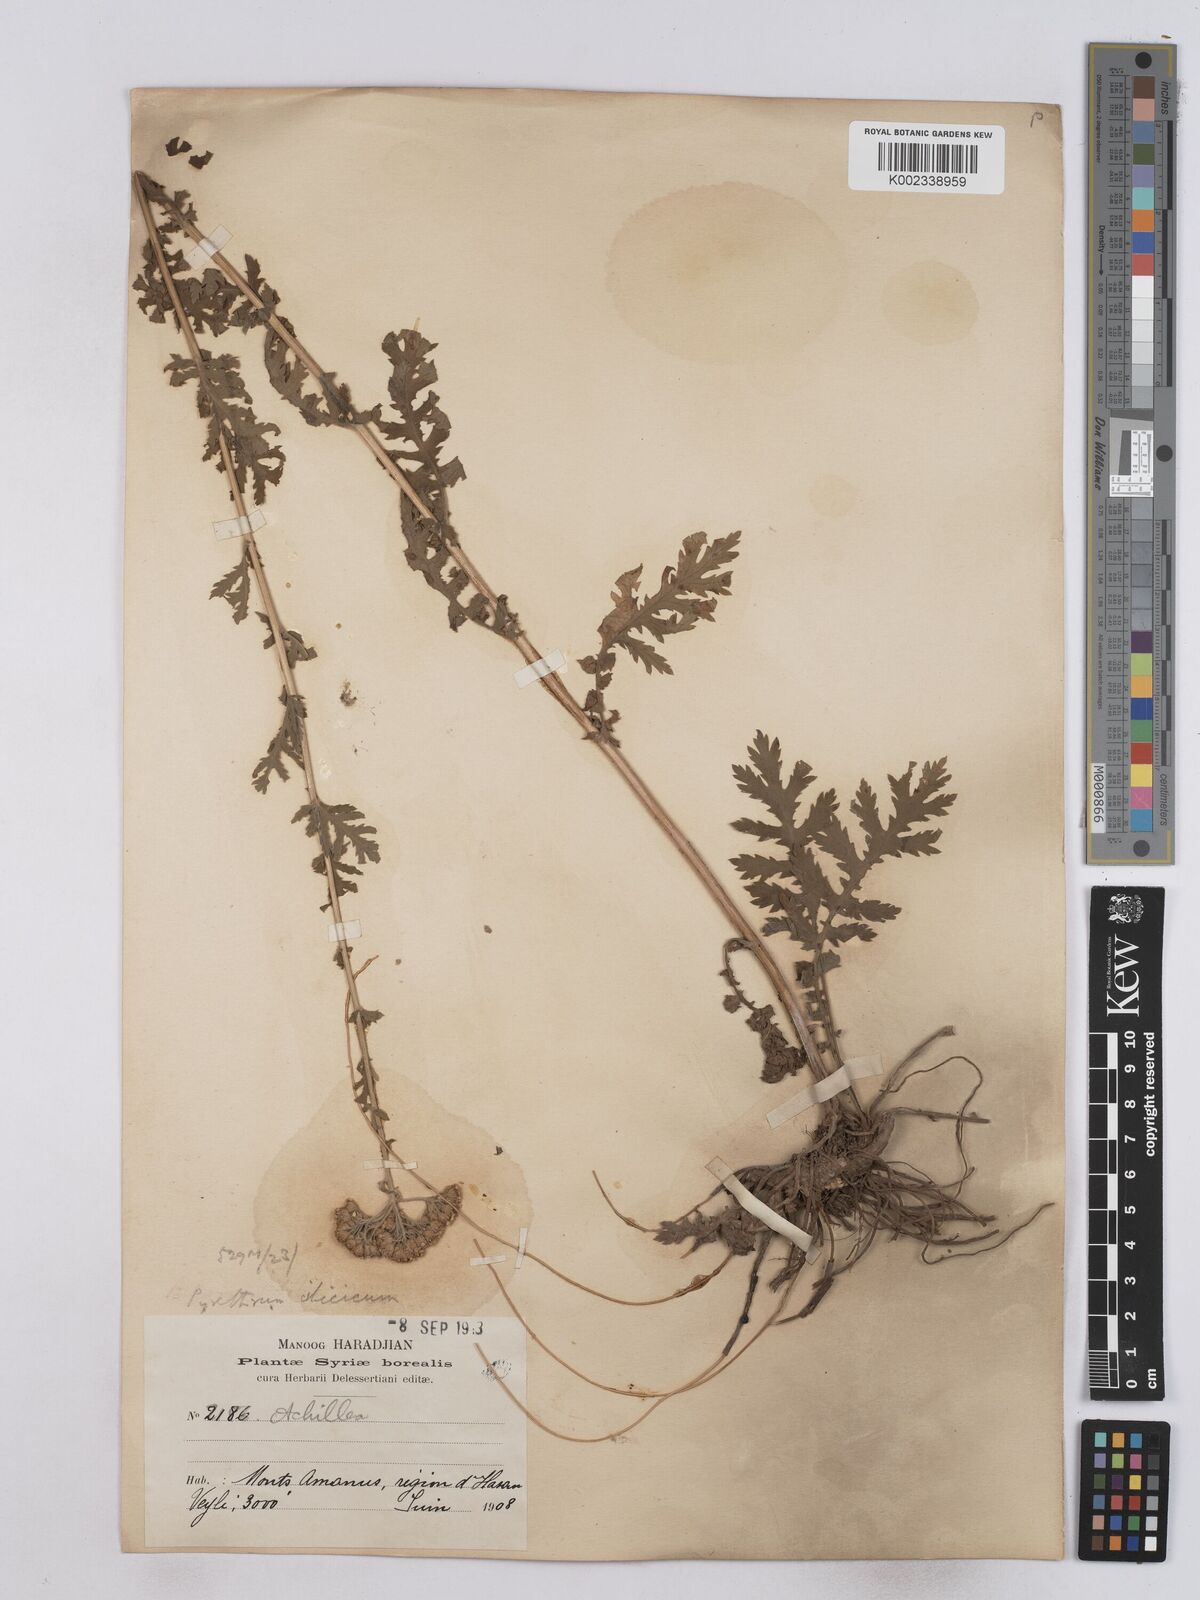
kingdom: Plantae
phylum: Tracheophyta
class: Magnoliopsida
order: Asterales
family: Asteraceae
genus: Tanacetum
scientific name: Tanacetum cilicicum
